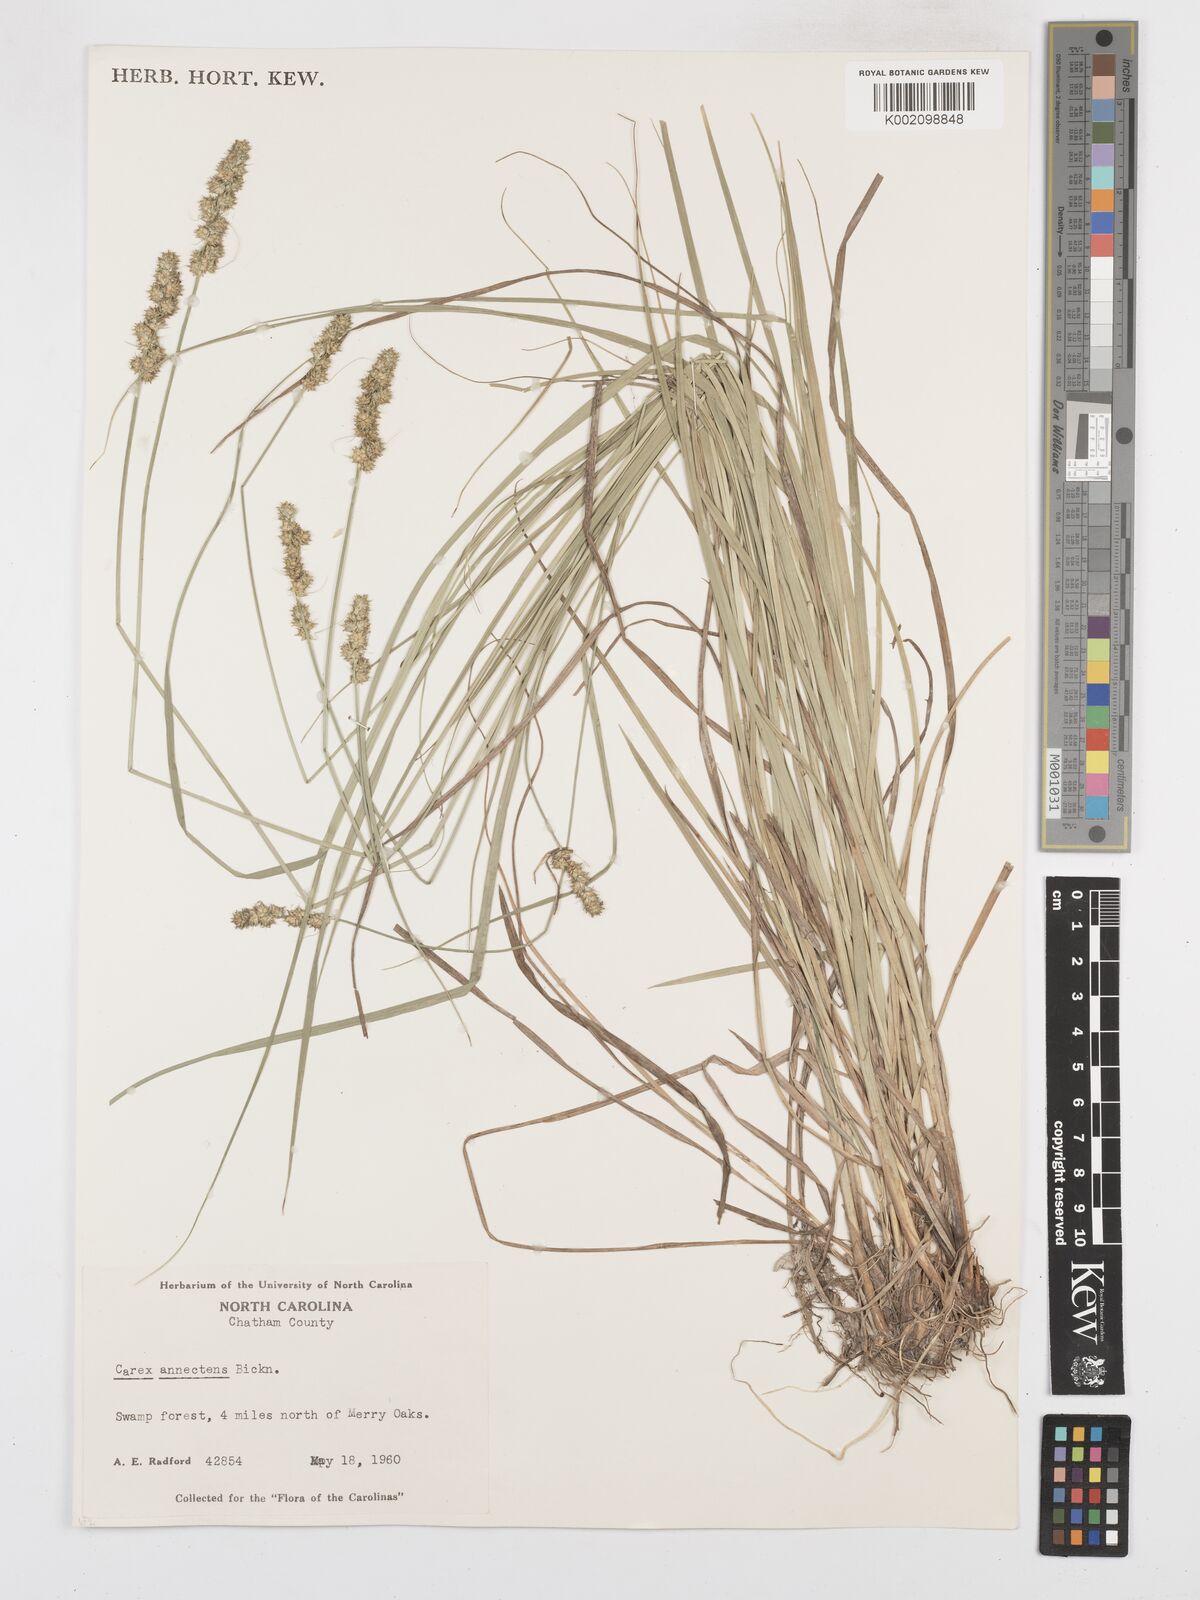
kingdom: Plantae
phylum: Tracheophyta
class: Liliopsida
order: Poales
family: Cyperaceae
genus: Carex
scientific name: Carex annectens
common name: Large fox sedge
